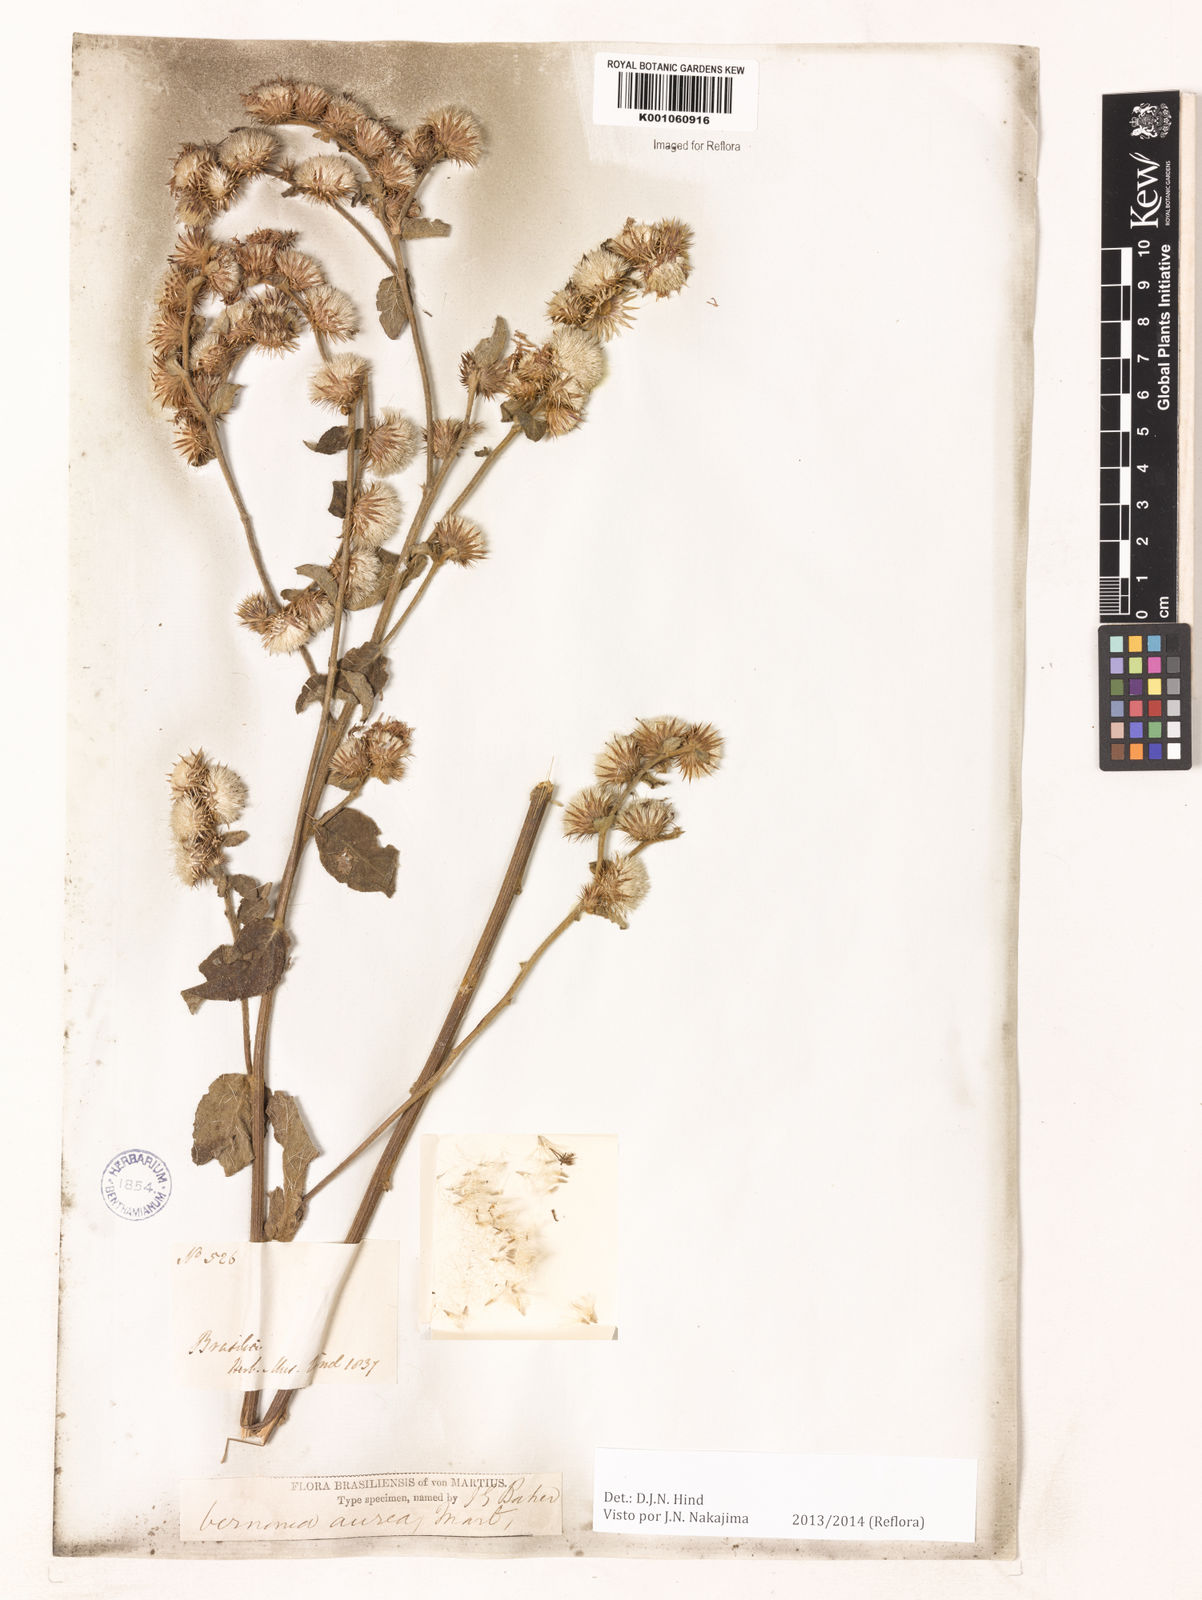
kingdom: Plantae
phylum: Tracheophyta
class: Magnoliopsida
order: Asterales
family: Asteraceae
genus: Lepidaploa
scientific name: Lepidaploa aurea
